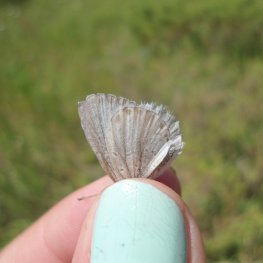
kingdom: Animalia
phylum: Arthropoda
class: Insecta
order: Lepidoptera
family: Lycaenidae
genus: Cyaniris
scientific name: Cyaniris neglecta
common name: Summer Azure
